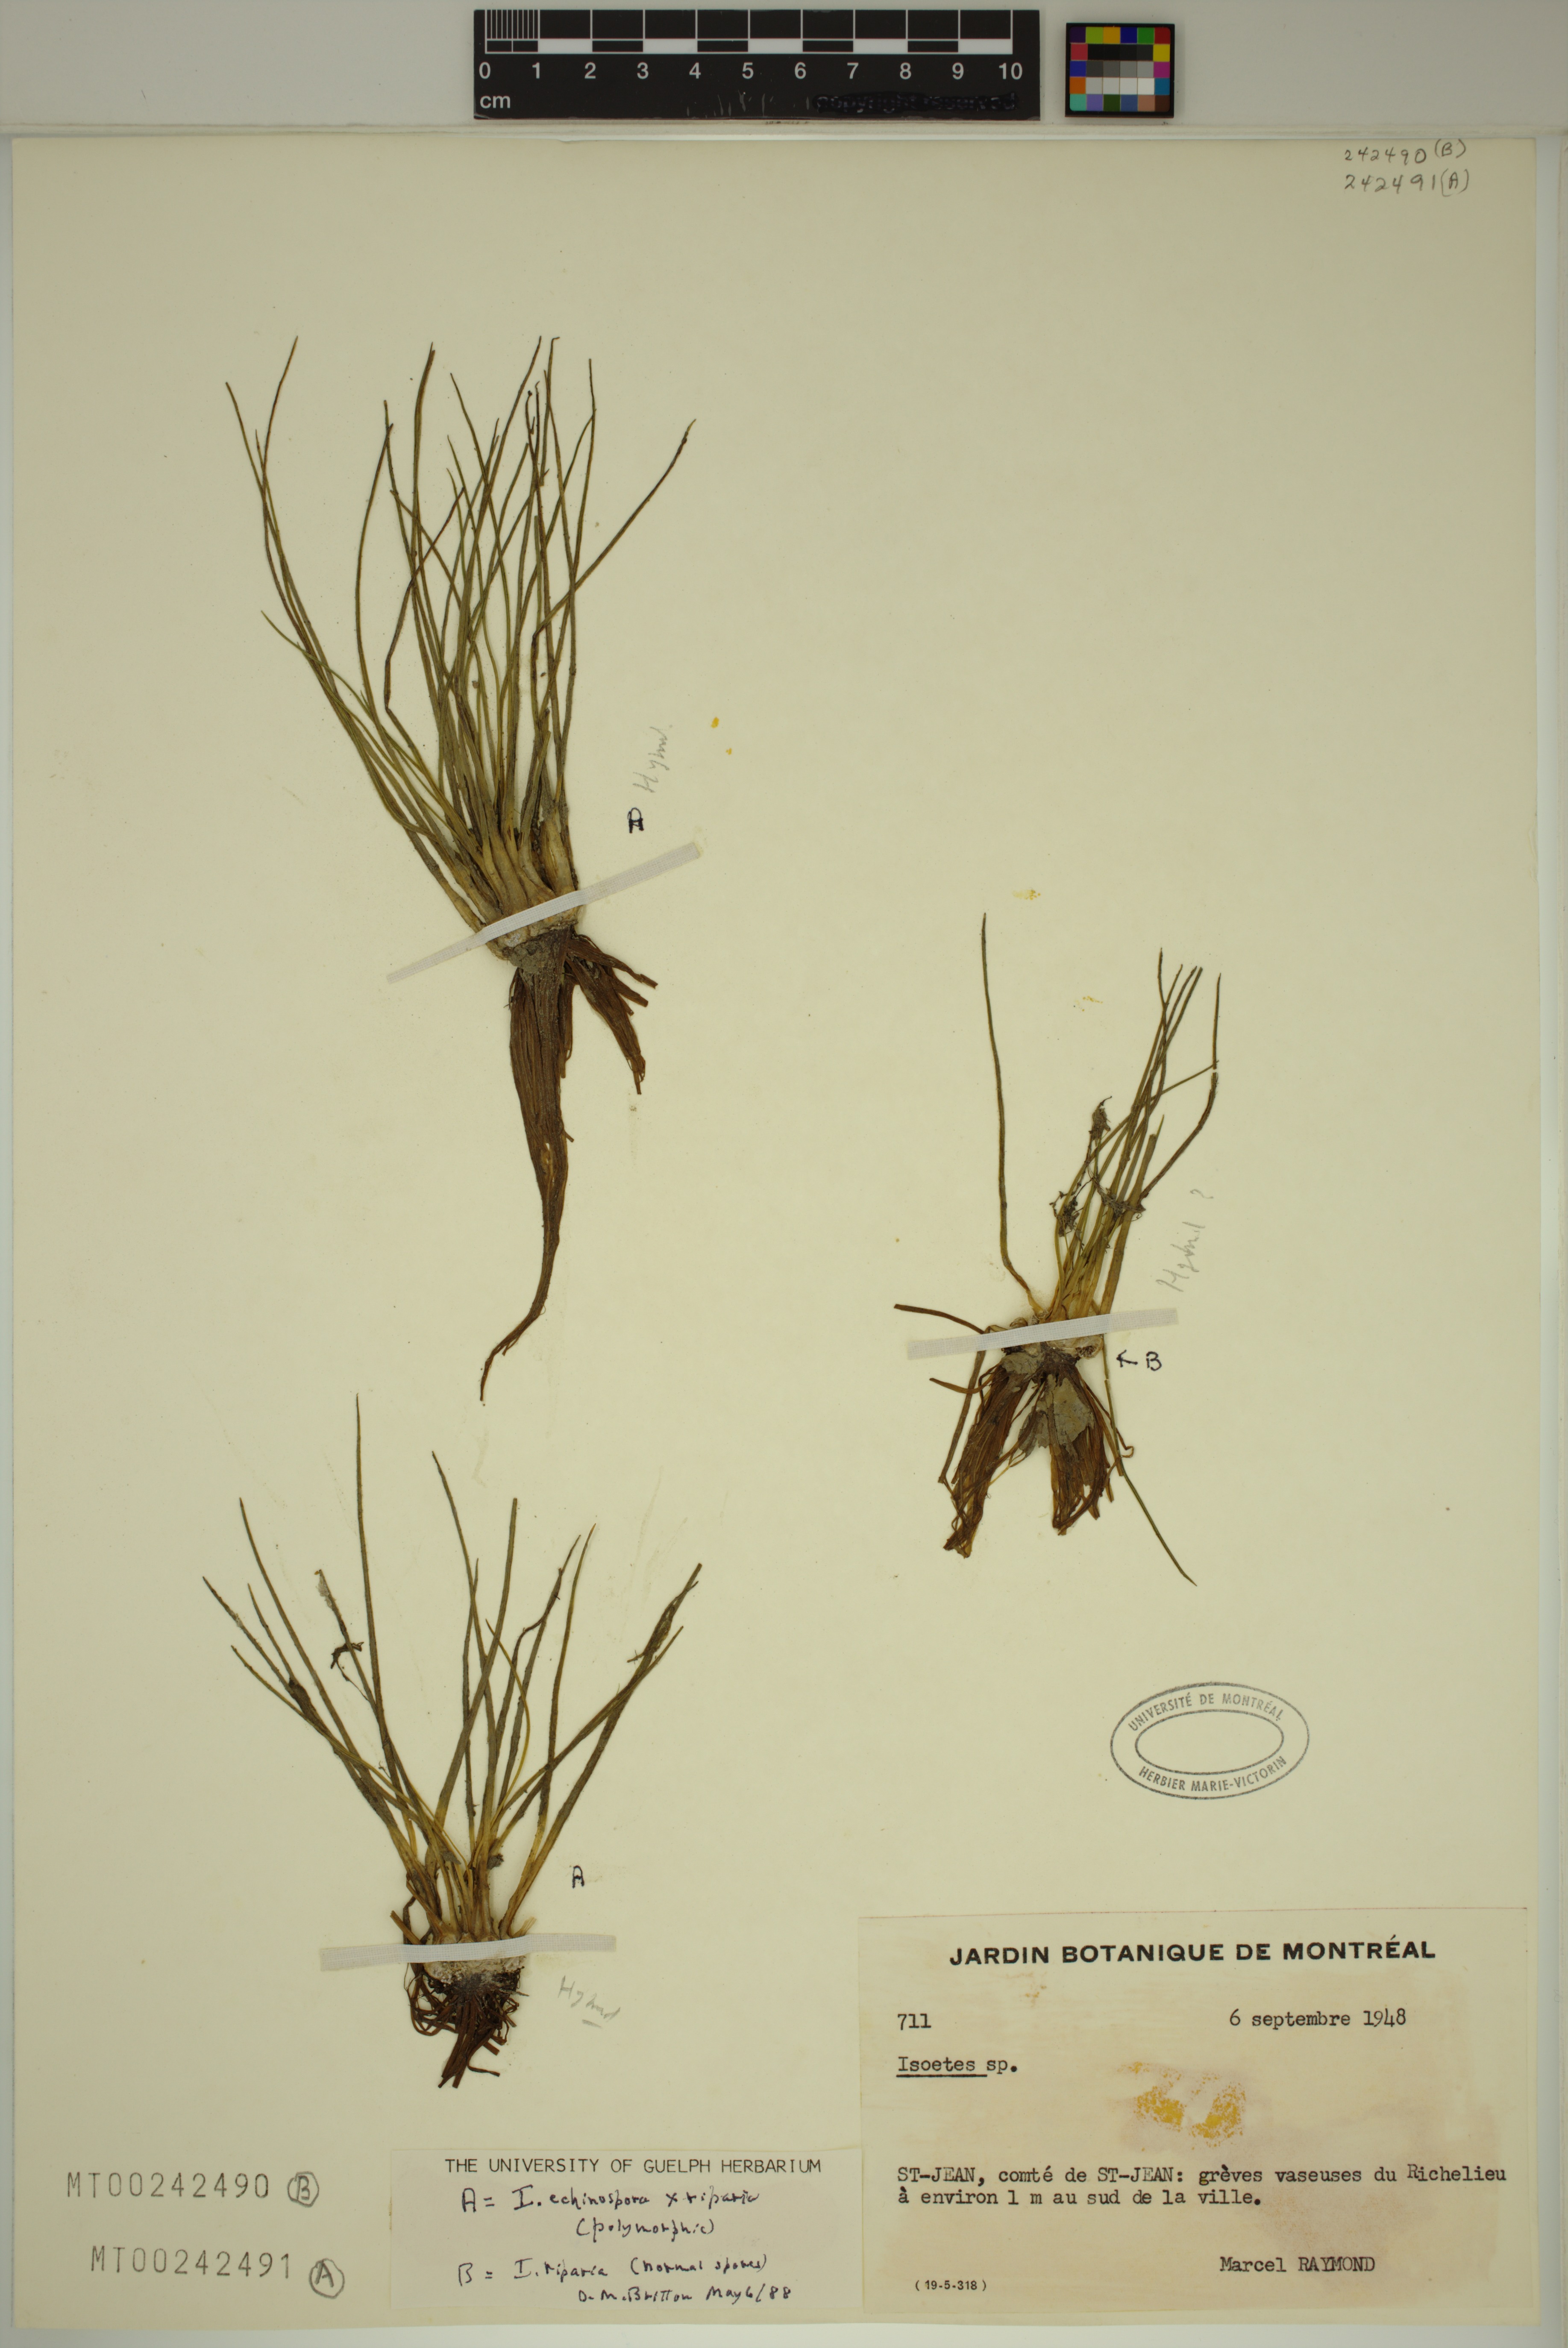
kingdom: Plantae
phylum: Tracheophyta
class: Lycopodiopsida
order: Isoetales
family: Isoetaceae
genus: Isoetes
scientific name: Isoetes robusta
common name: Robust quillwort
